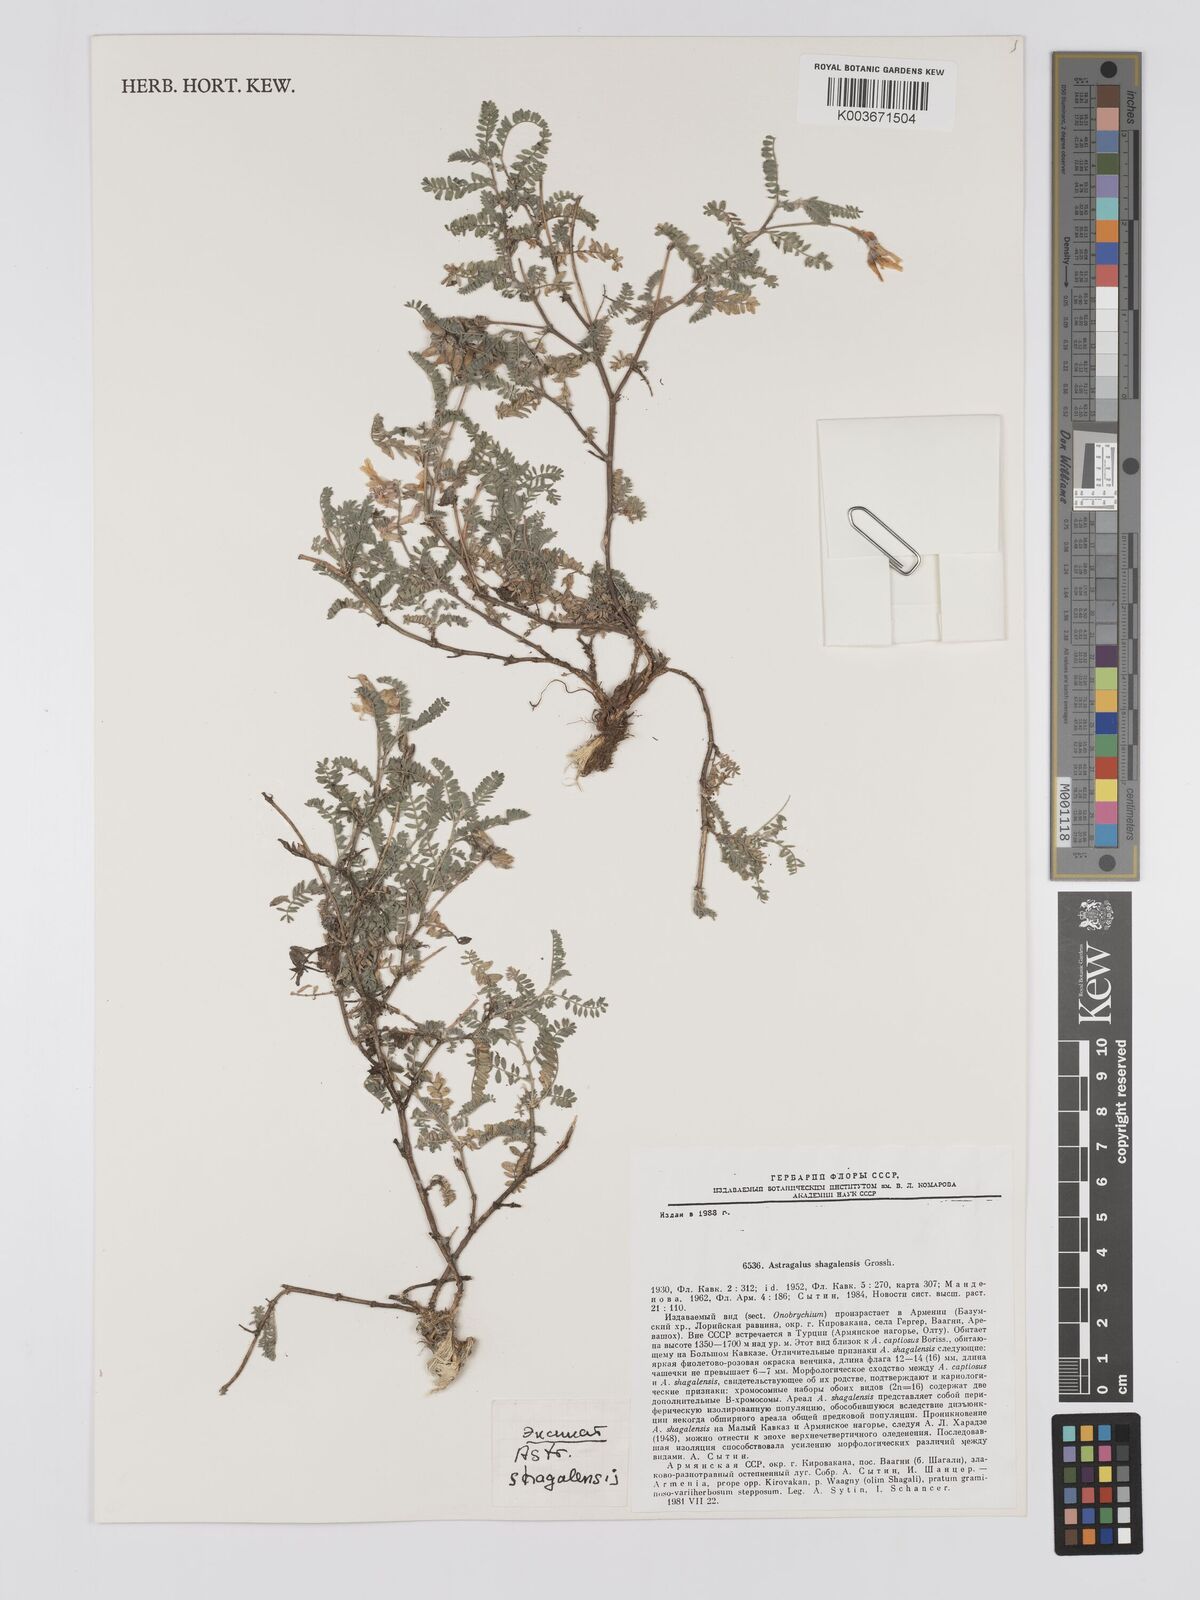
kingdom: Plantae
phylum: Tracheophyta
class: Magnoliopsida
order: Fabales
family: Fabaceae
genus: Astragalus
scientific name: Astragalus shagalensis
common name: Shagalian milk vetch
